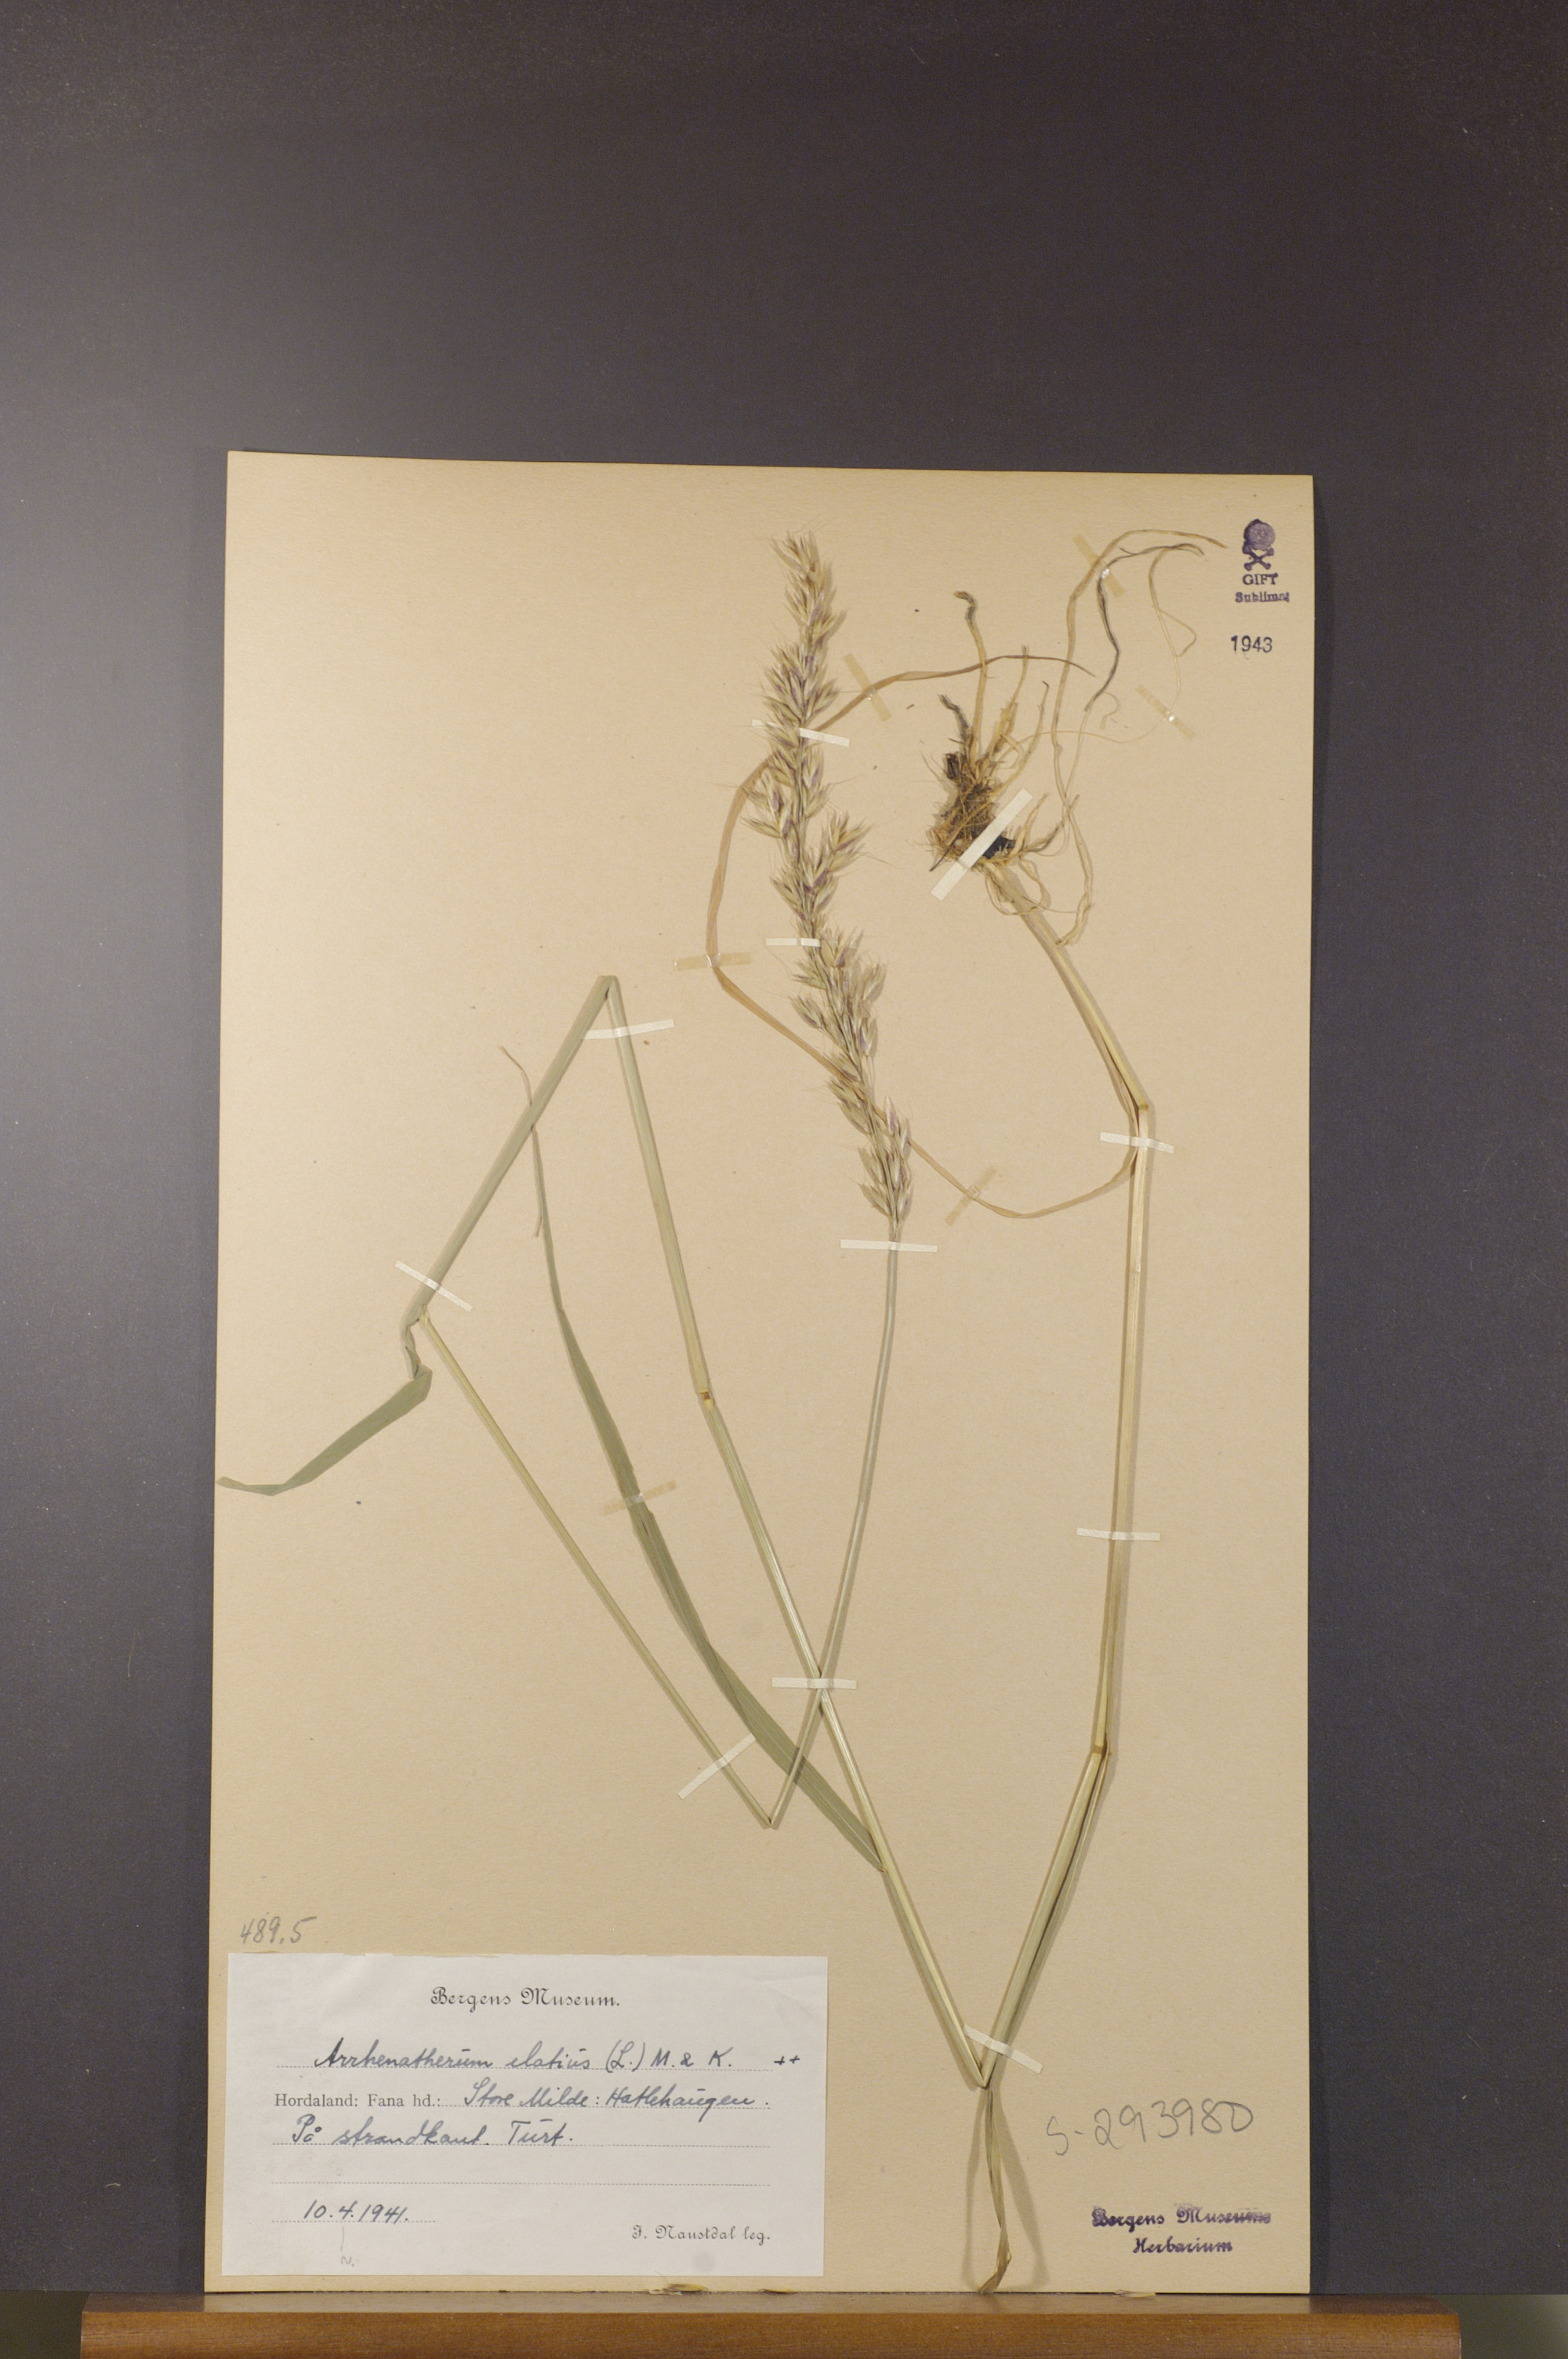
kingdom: Plantae
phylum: Tracheophyta
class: Liliopsida
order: Poales
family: Poaceae
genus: Arrhenatherum
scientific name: Arrhenatherum elatius
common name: Tall oatgrass
